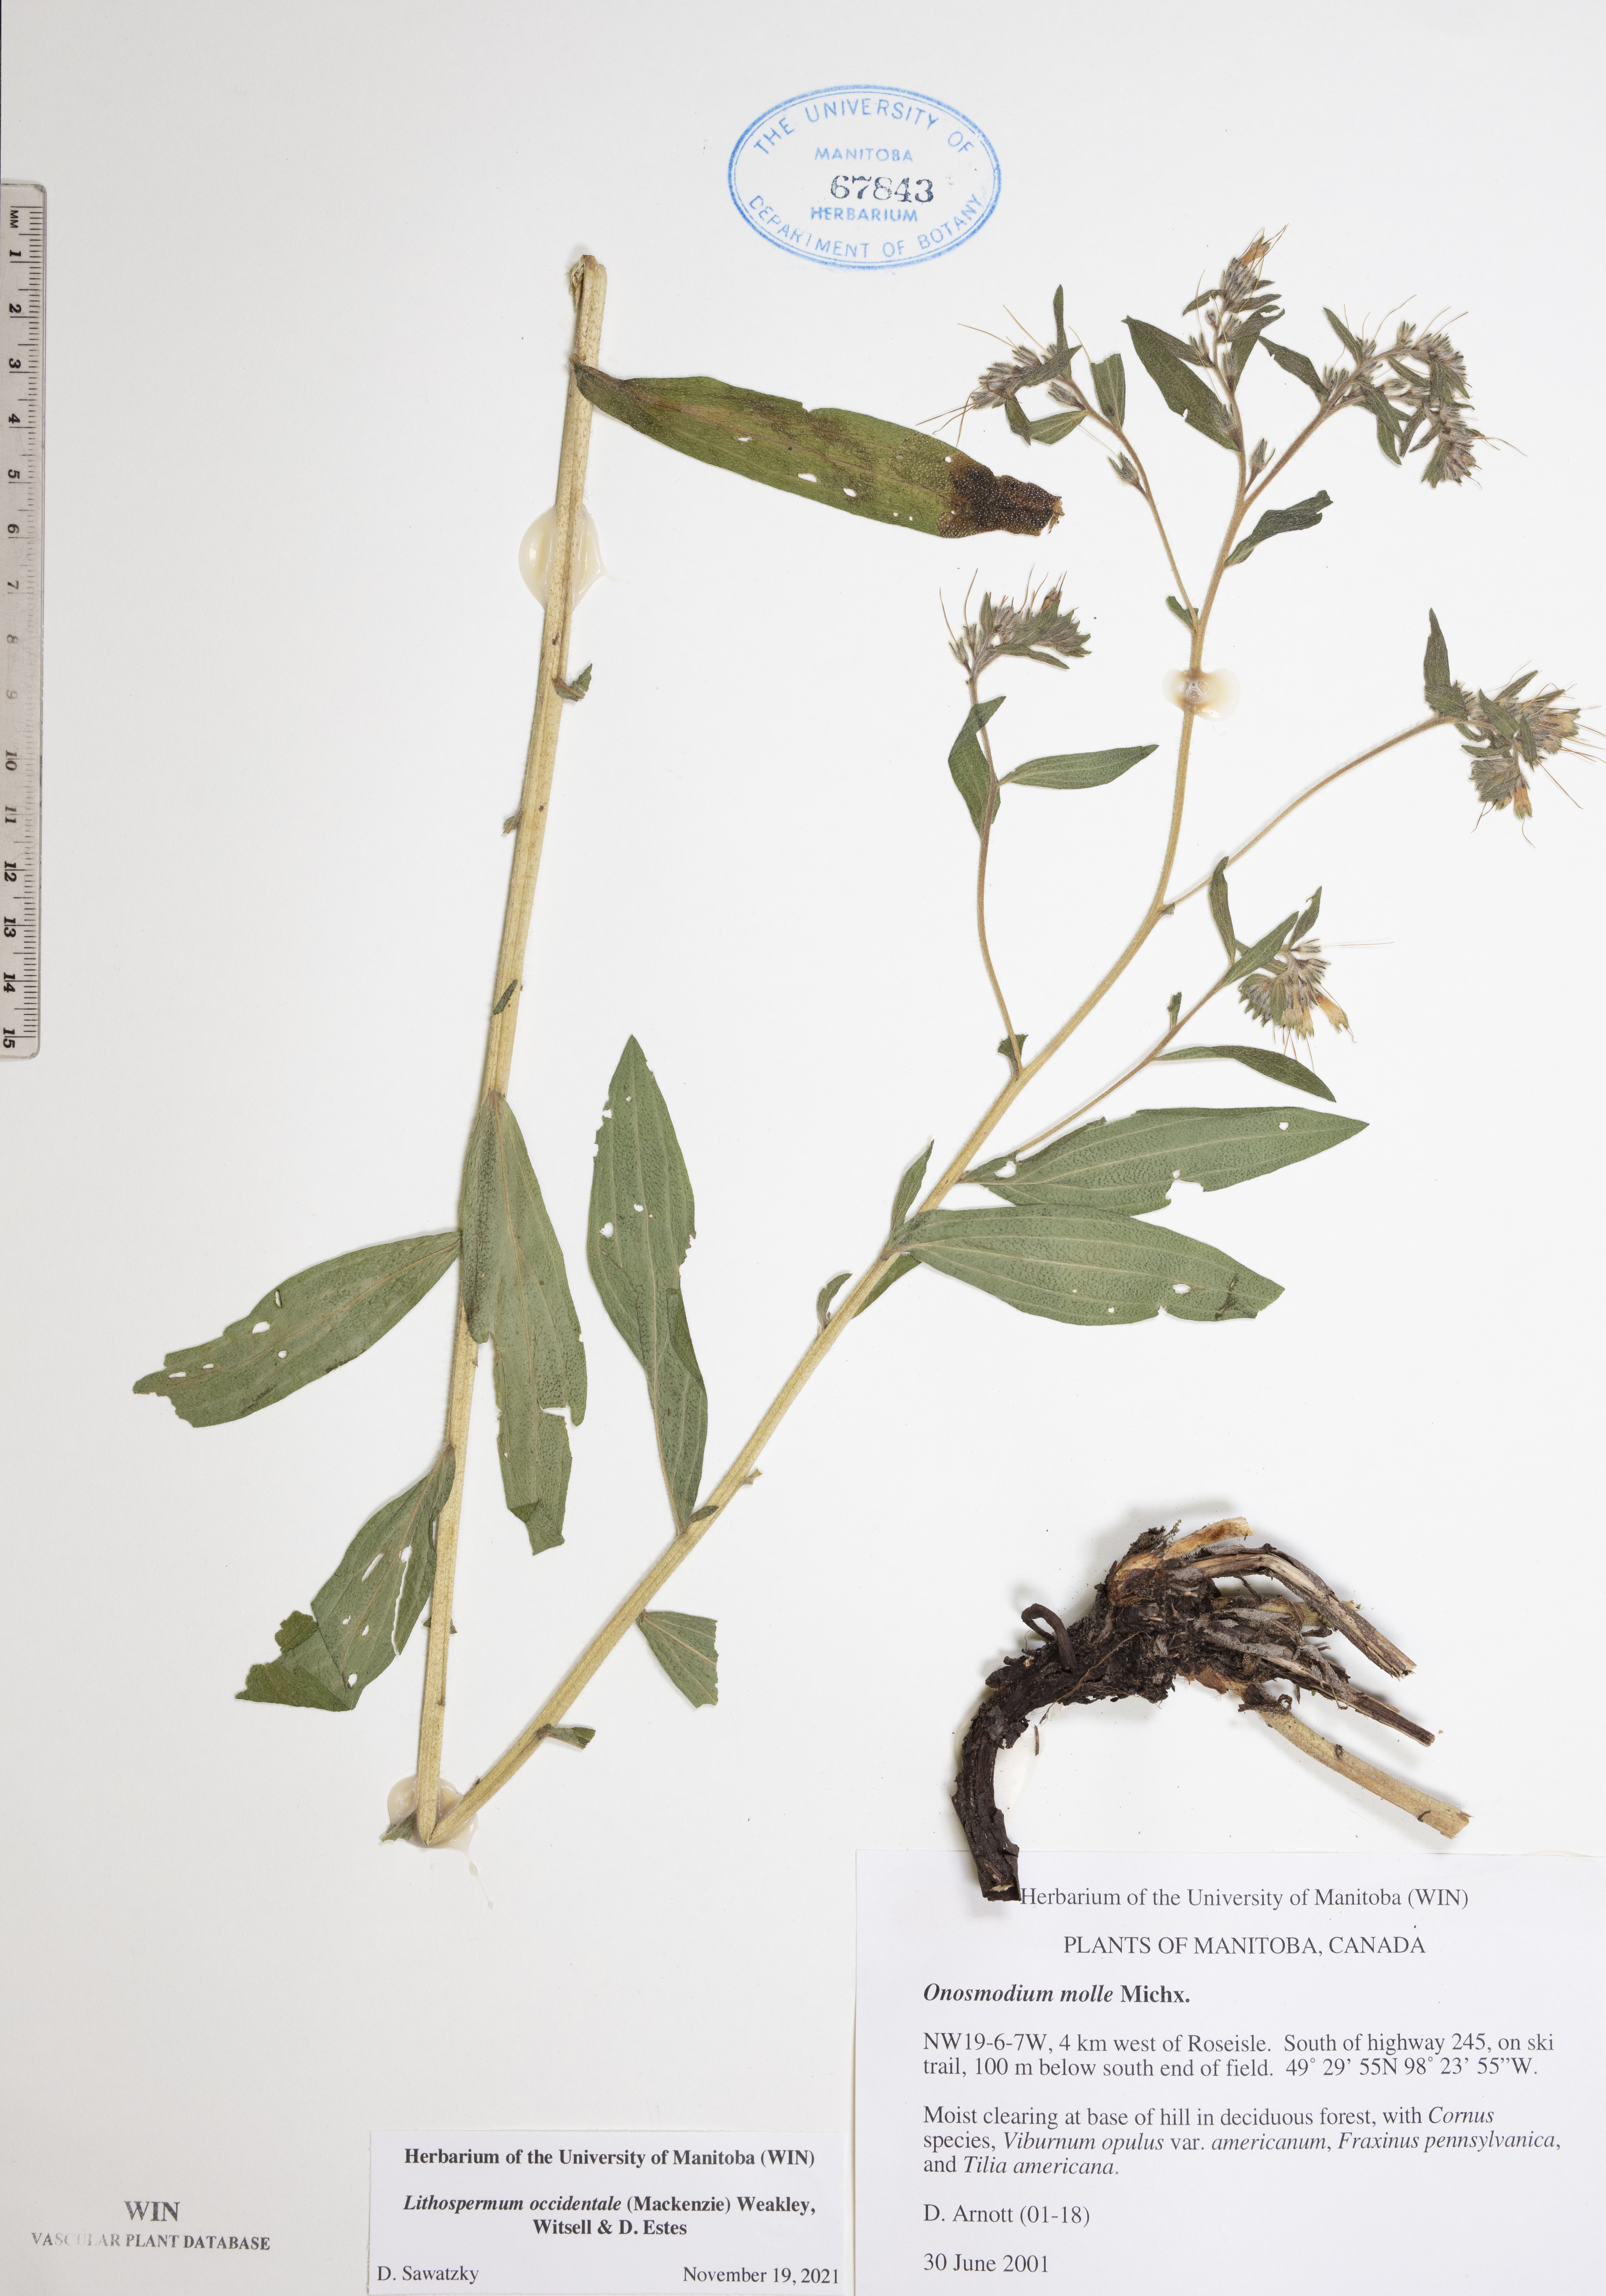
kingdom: Plantae
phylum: Tracheophyta
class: Magnoliopsida
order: Boraginales
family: Boraginaceae
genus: Lithospermum
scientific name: Lithospermum occidentale
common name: Western false gromwell
